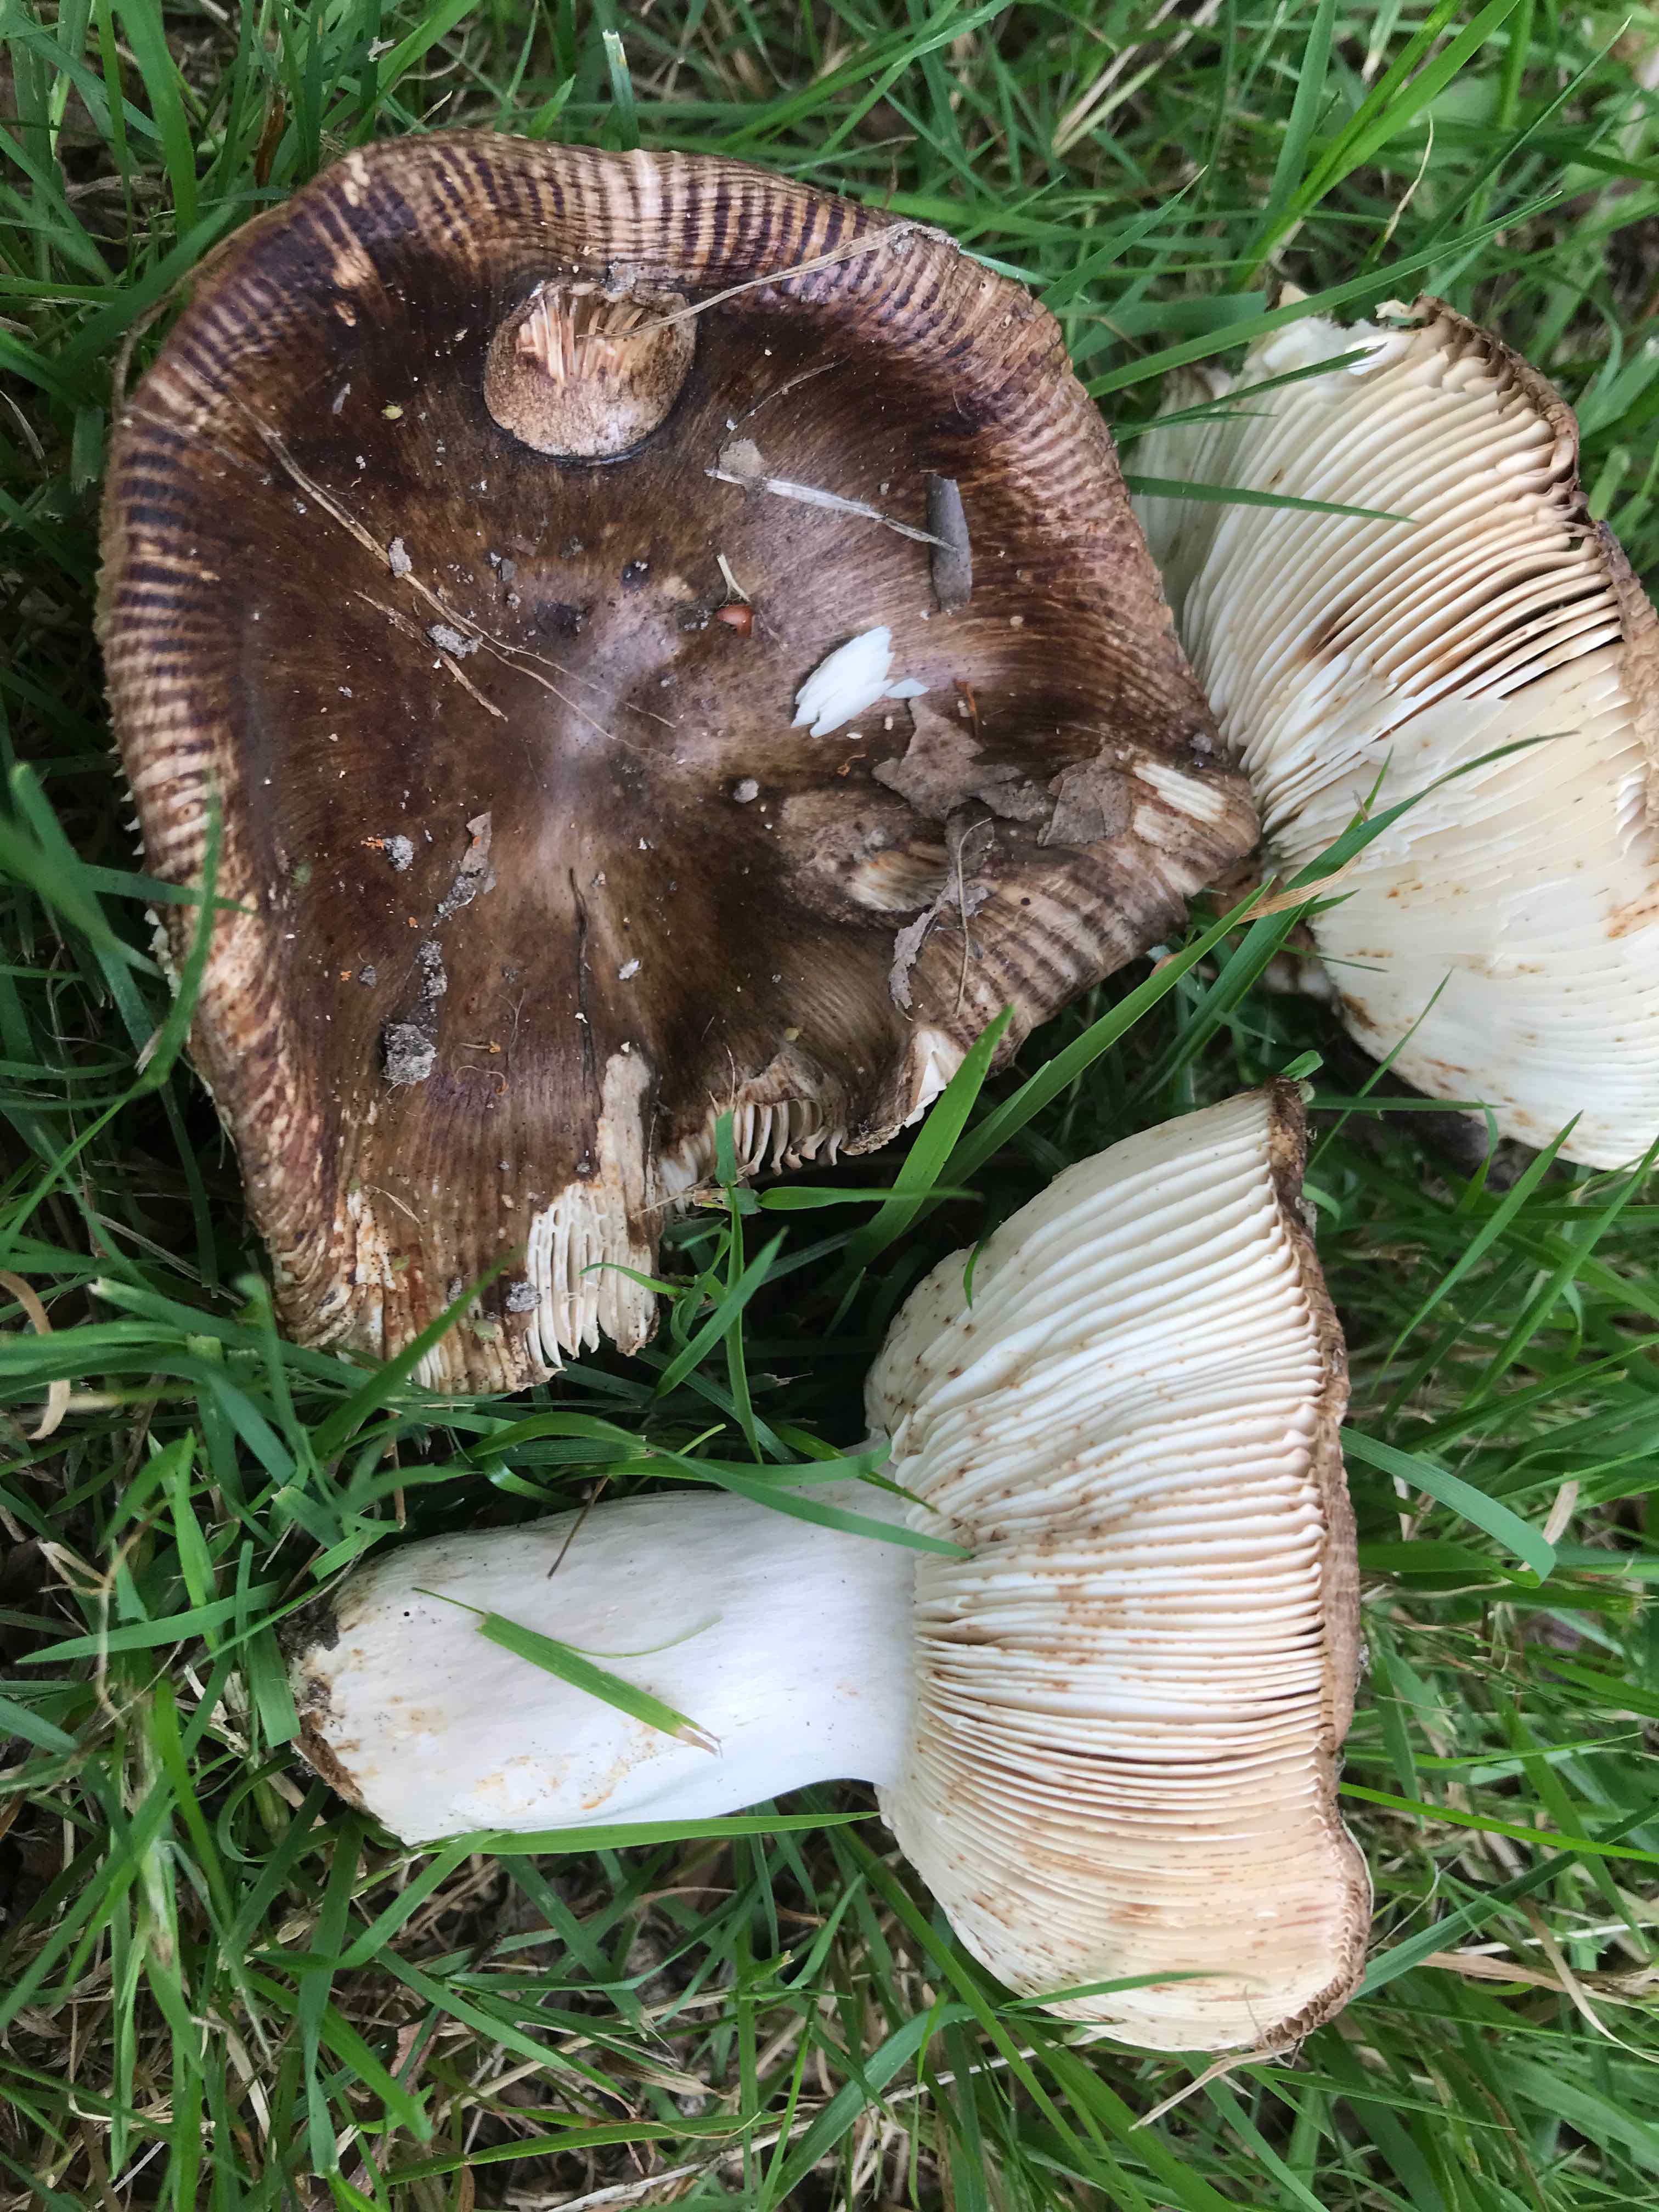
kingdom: Fungi
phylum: Basidiomycota
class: Agaricomycetes
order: Russulales
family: Russulaceae
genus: Russula
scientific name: Russula sororia
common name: brun kam-skørhat
